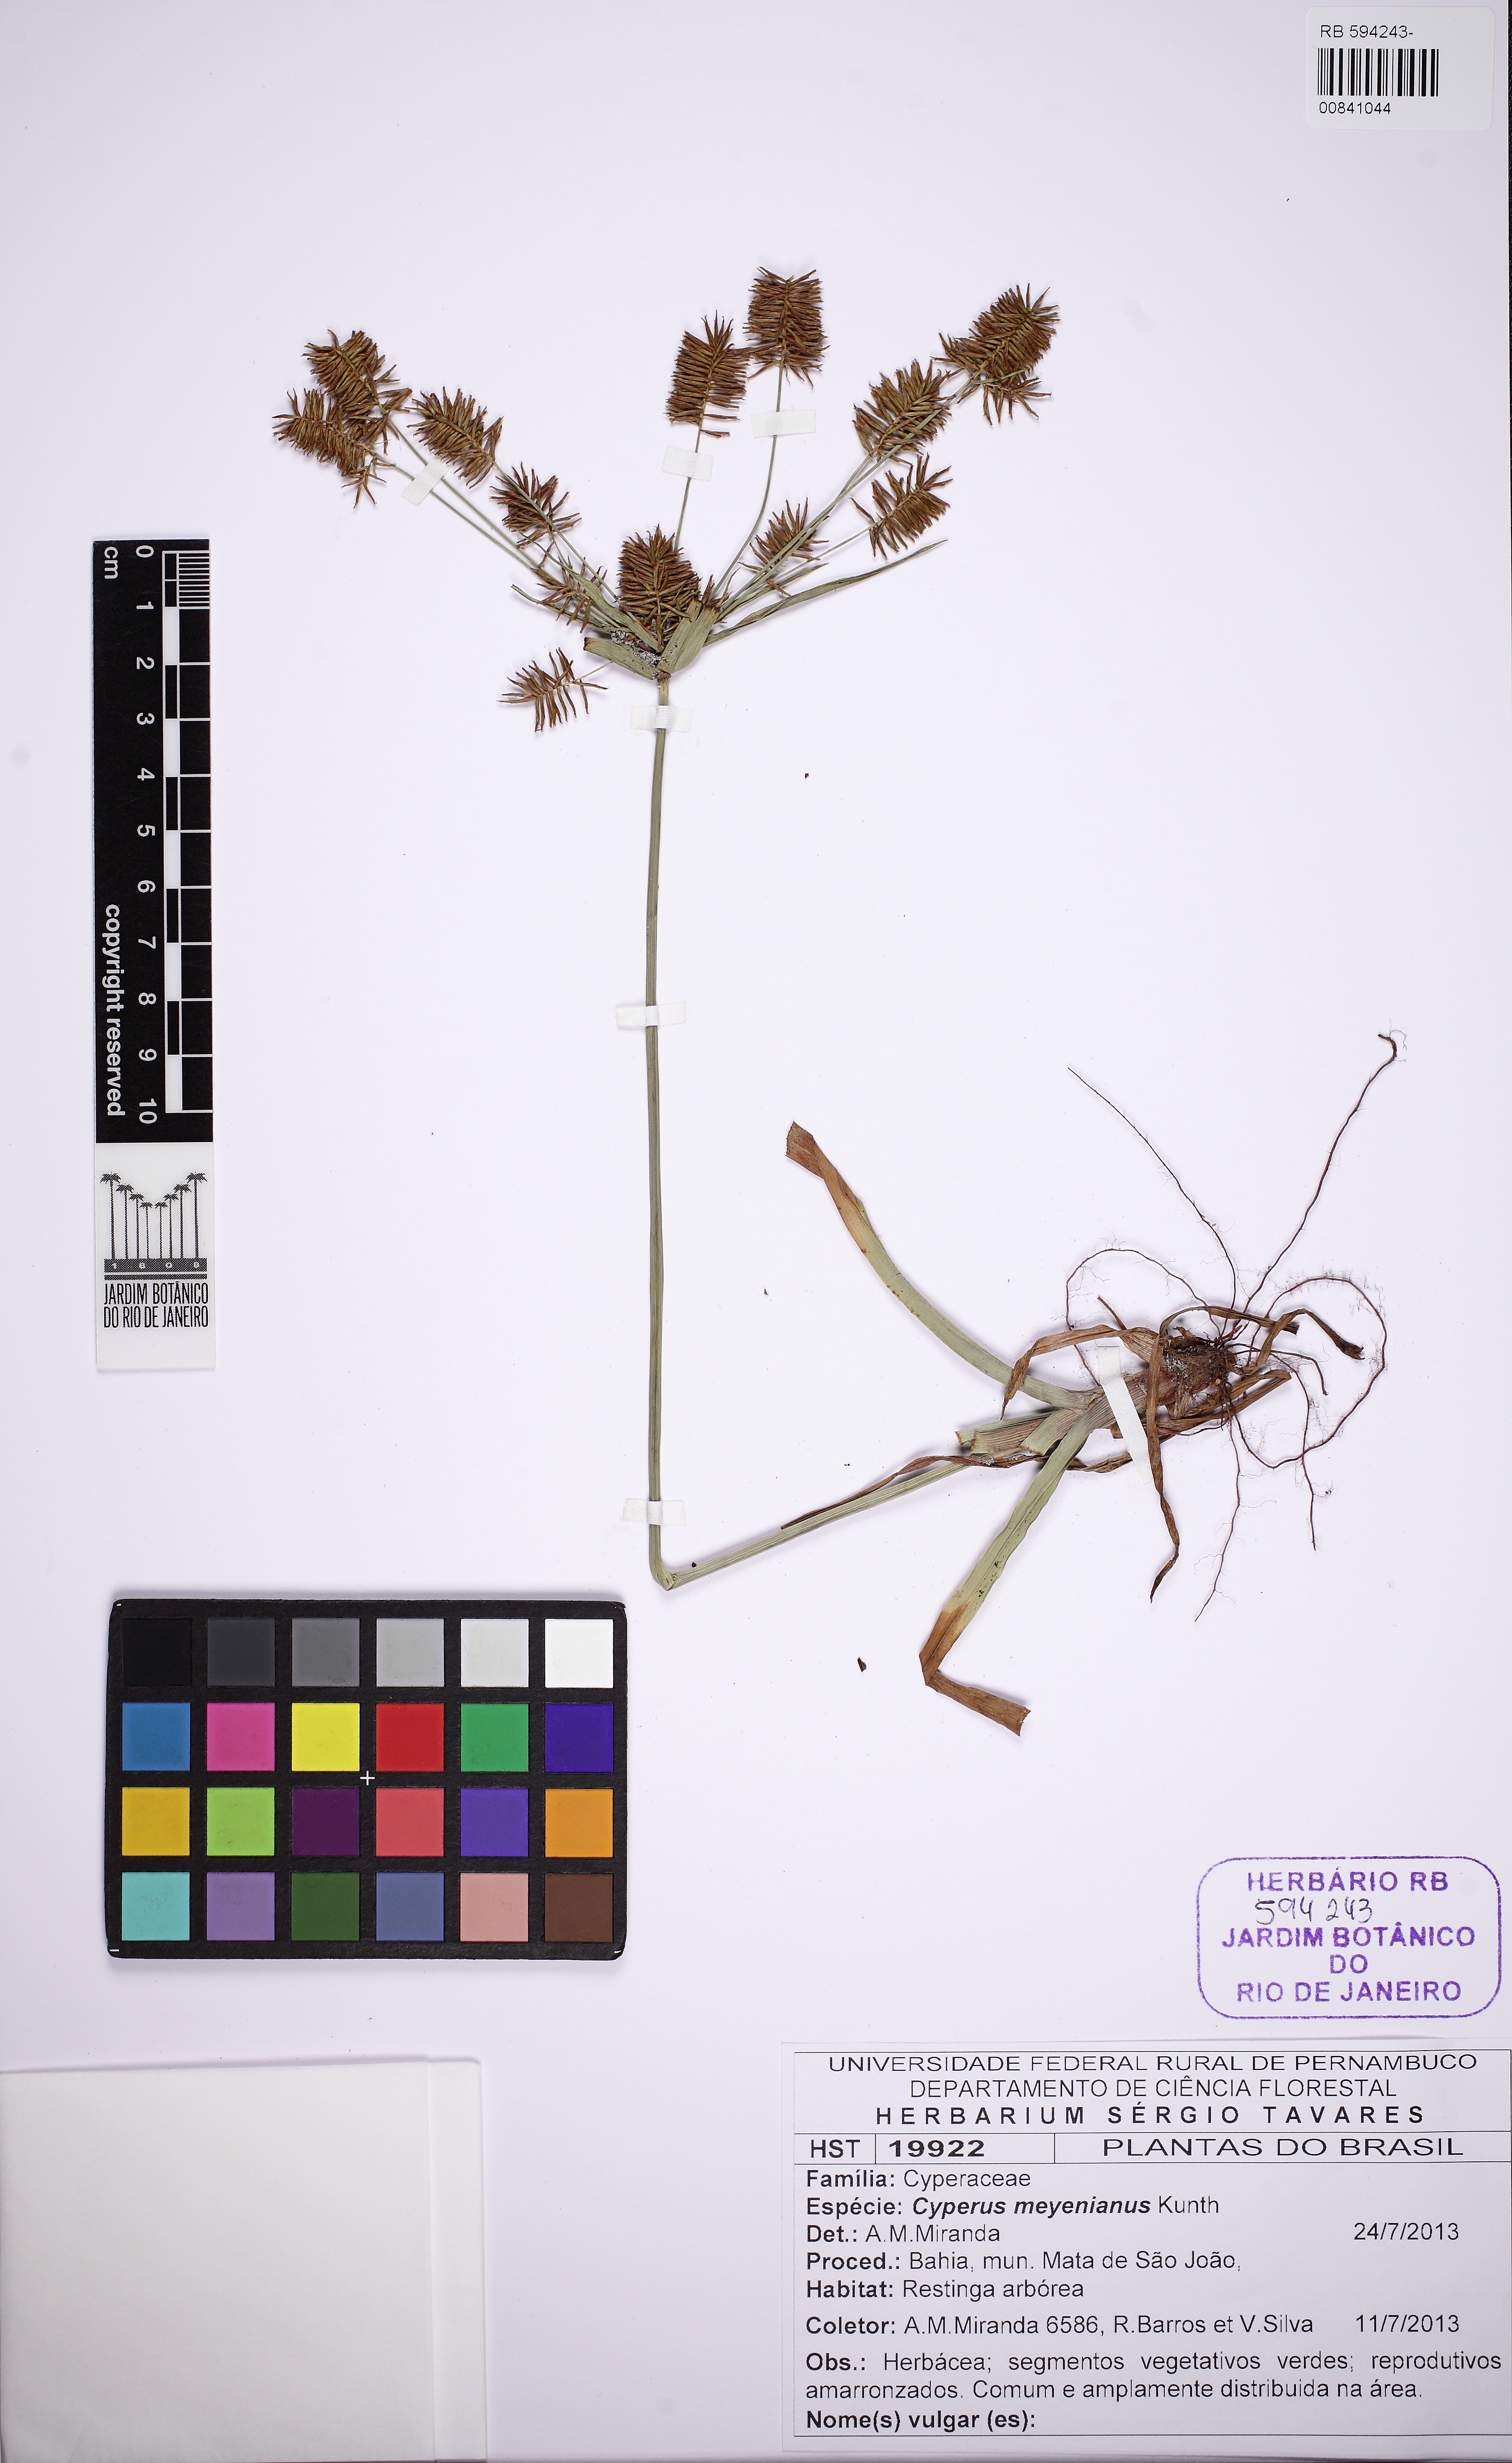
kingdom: Plantae
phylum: Tracheophyta
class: Liliopsida
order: Poales
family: Cyperaceae
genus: Cyperus
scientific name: Cyperus meyenianus
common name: Meyen's flatsedge
